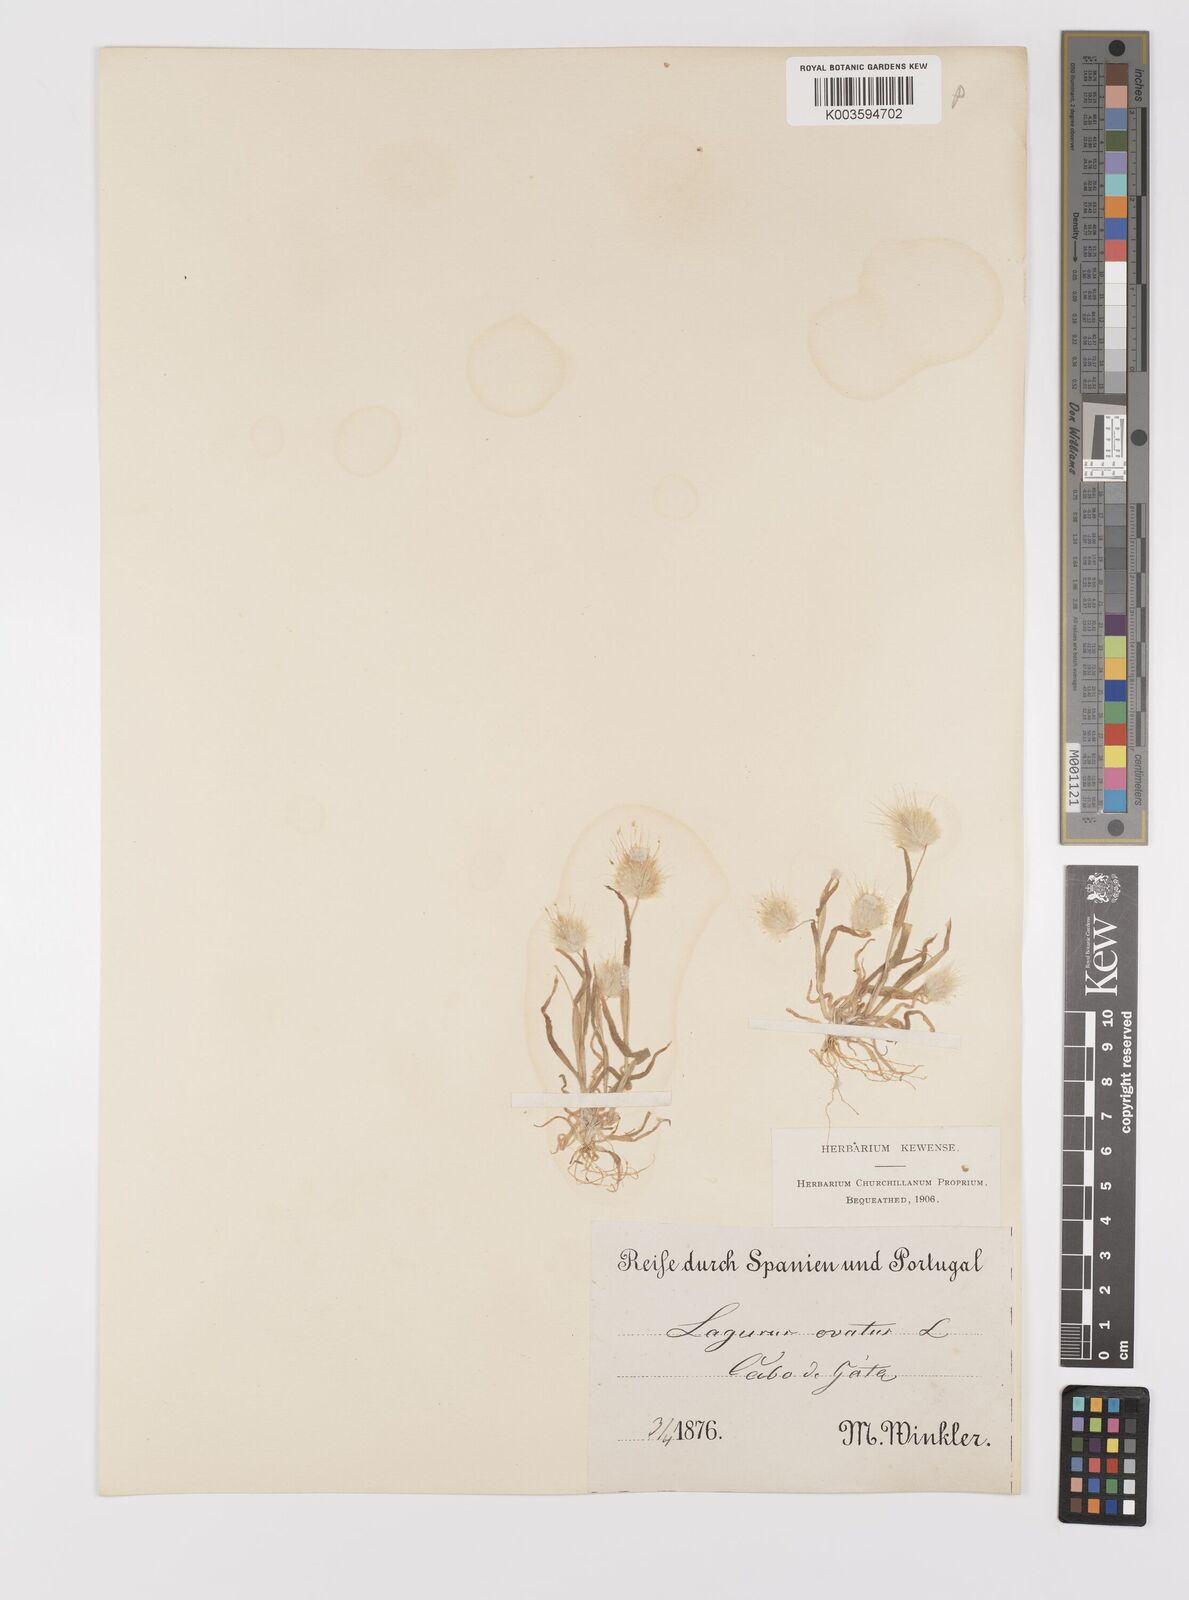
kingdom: Plantae
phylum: Tracheophyta
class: Liliopsida
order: Poales
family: Poaceae
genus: Lagurus
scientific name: Lagurus ovatus
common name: Hare's-tail
